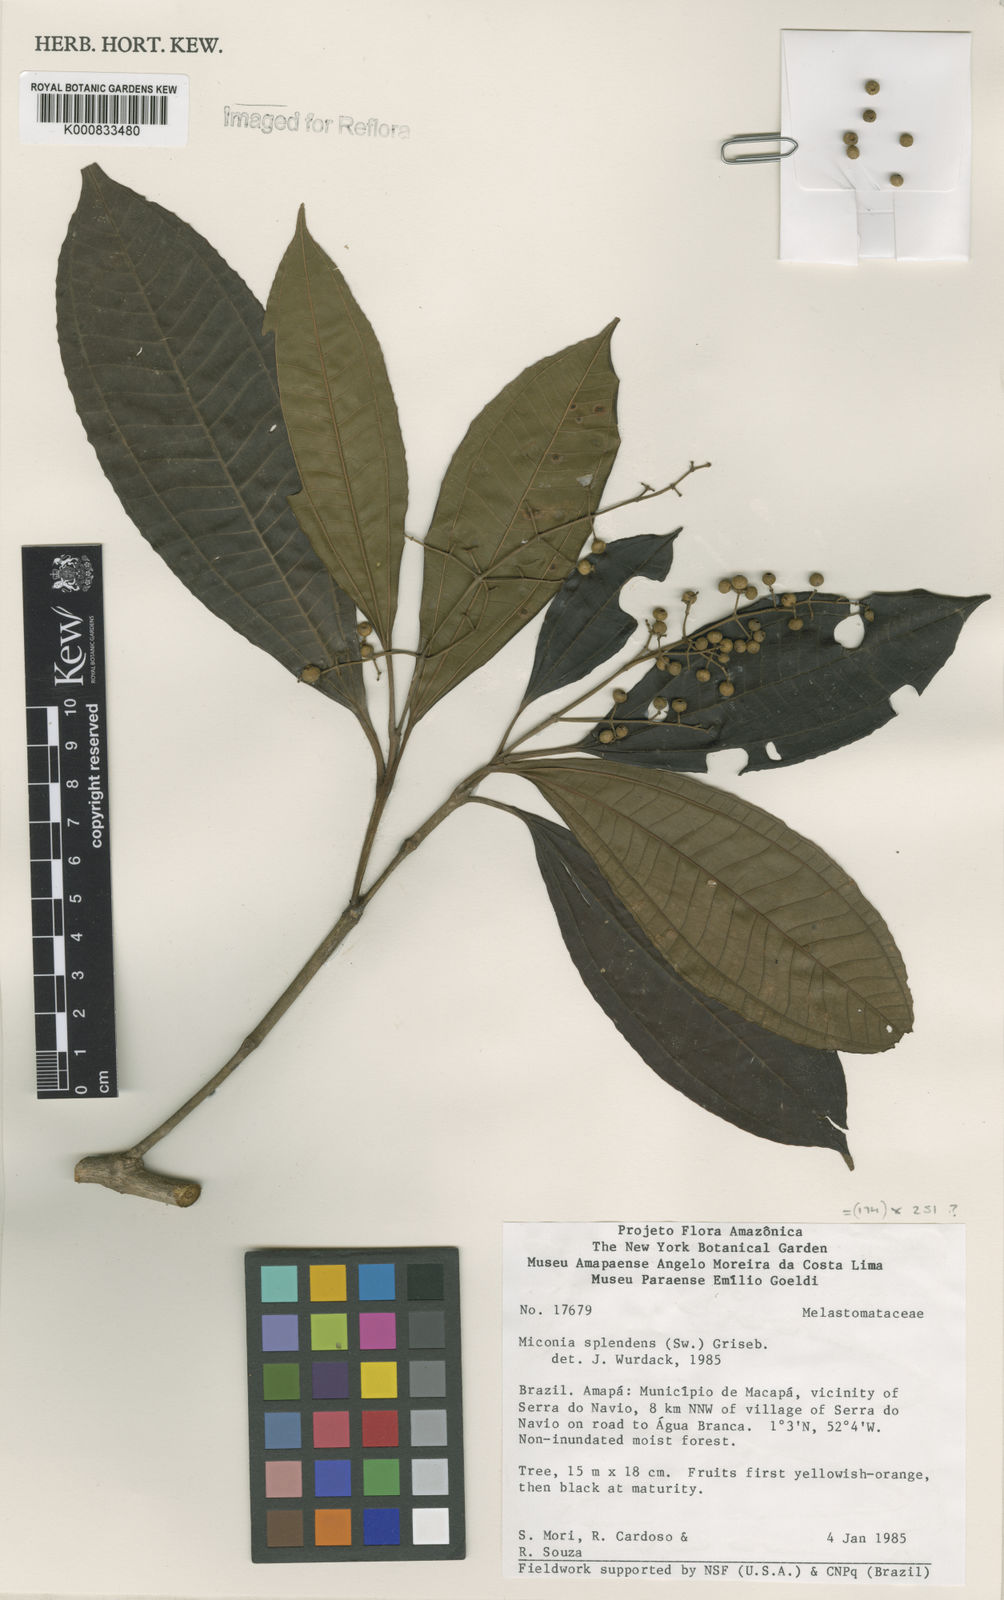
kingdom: Plantae
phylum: Tracheophyta
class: Magnoliopsida
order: Myrtales
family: Melastomataceae
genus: Miconia
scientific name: Miconia splendens
